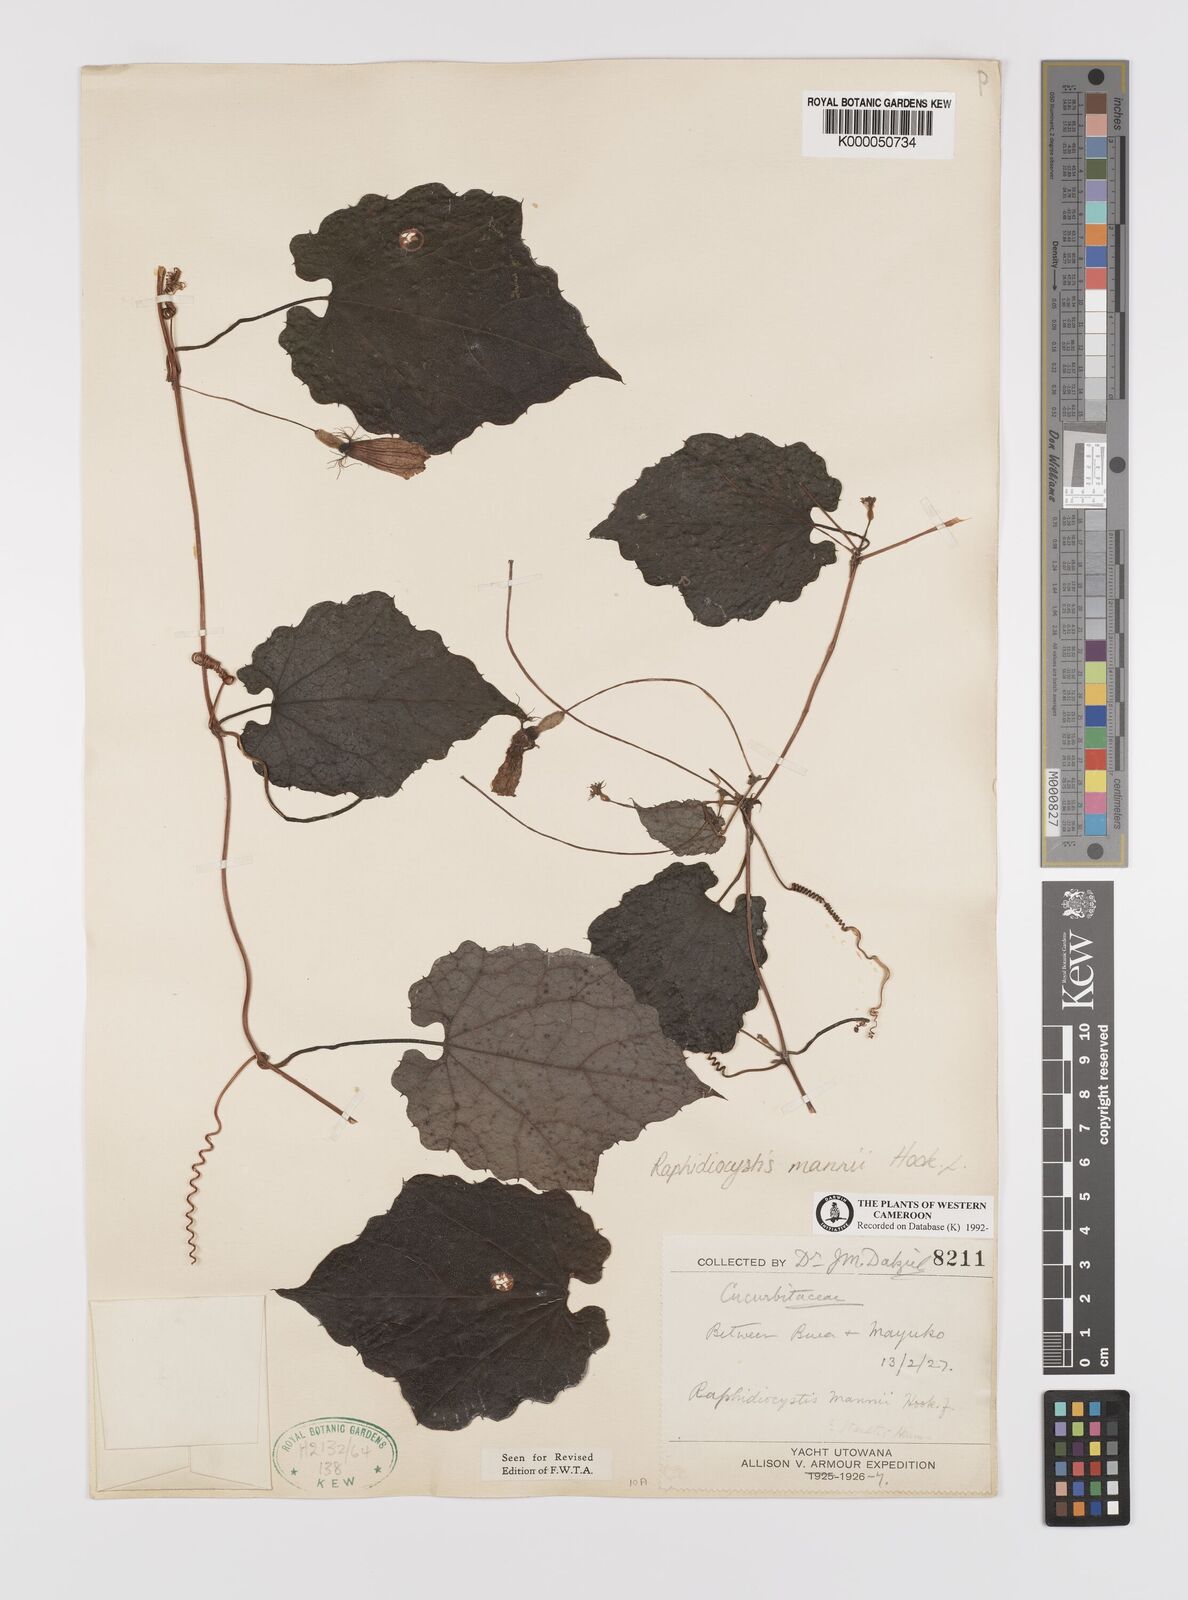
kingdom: Plantae
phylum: Tracheophyta
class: Magnoliopsida
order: Cucurbitales
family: Cucurbitaceae
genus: Raphidiocystis
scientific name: Raphidiocystis mannii
